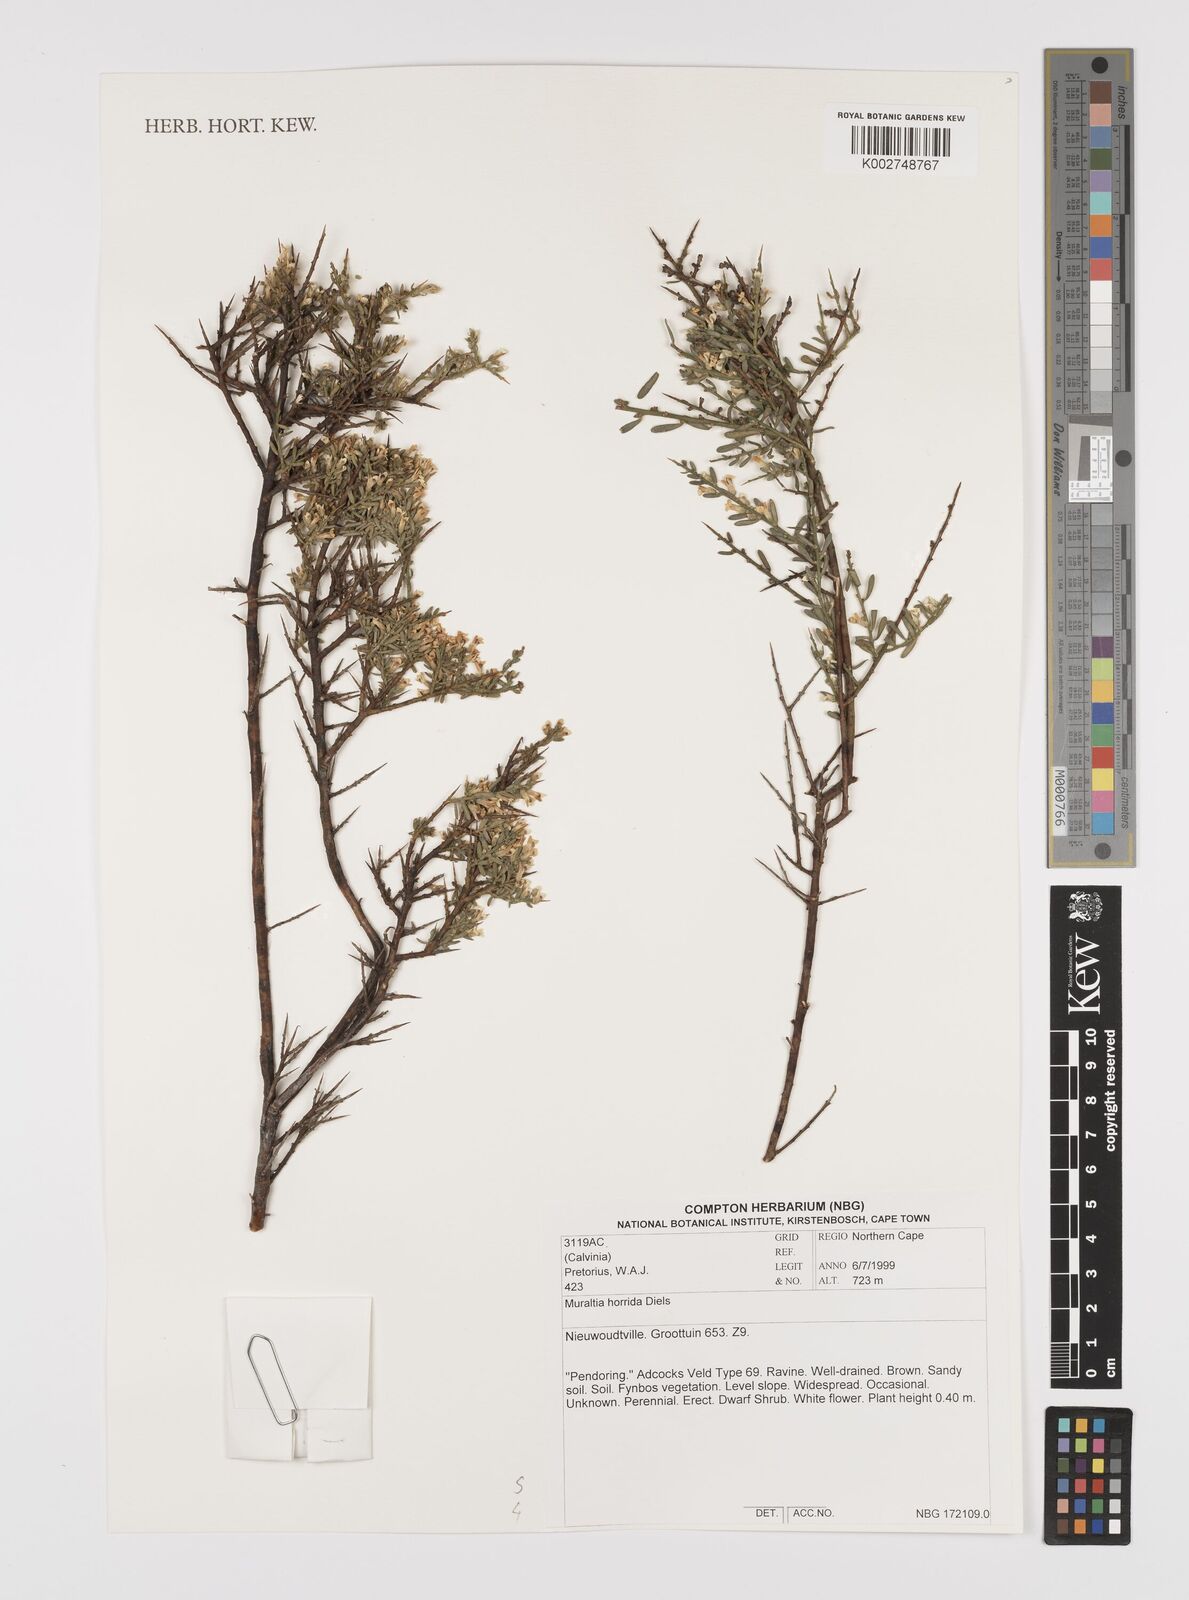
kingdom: Plantae
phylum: Tracheophyta
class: Magnoliopsida
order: Fabales
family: Polygalaceae
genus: Muraltia
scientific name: Muraltia horrida
